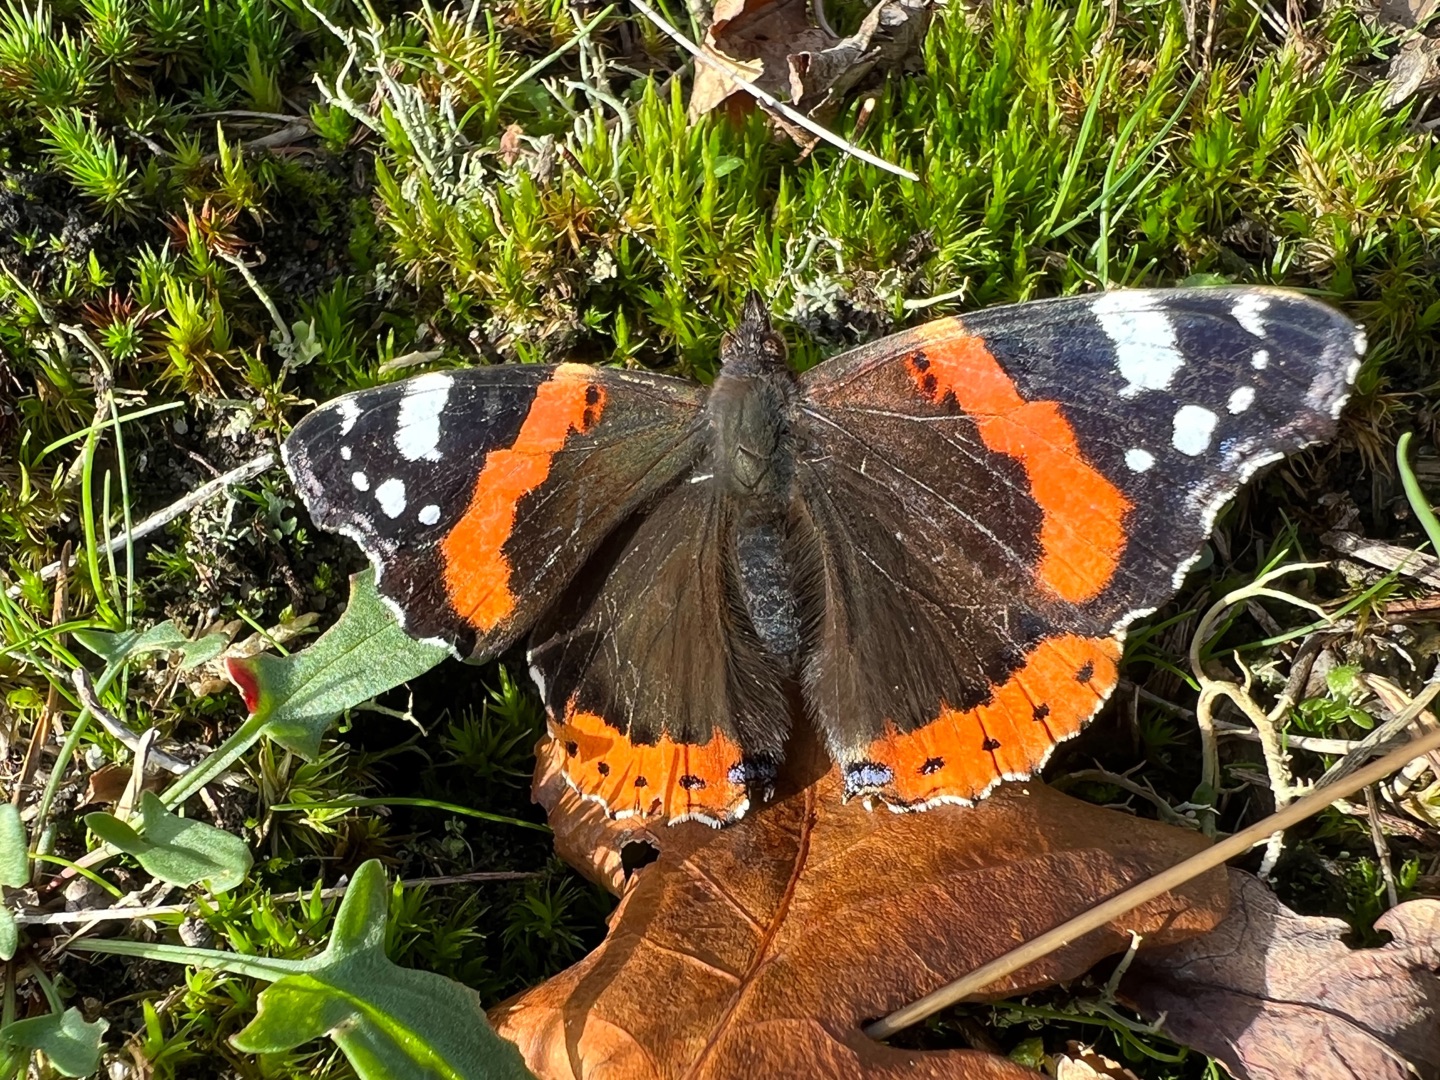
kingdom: Animalia
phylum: Arthropoda
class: Insecta
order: Lepidoptera
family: Nymphalidae
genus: Vanessa
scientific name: Vanessa atalanta
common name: Admiral
